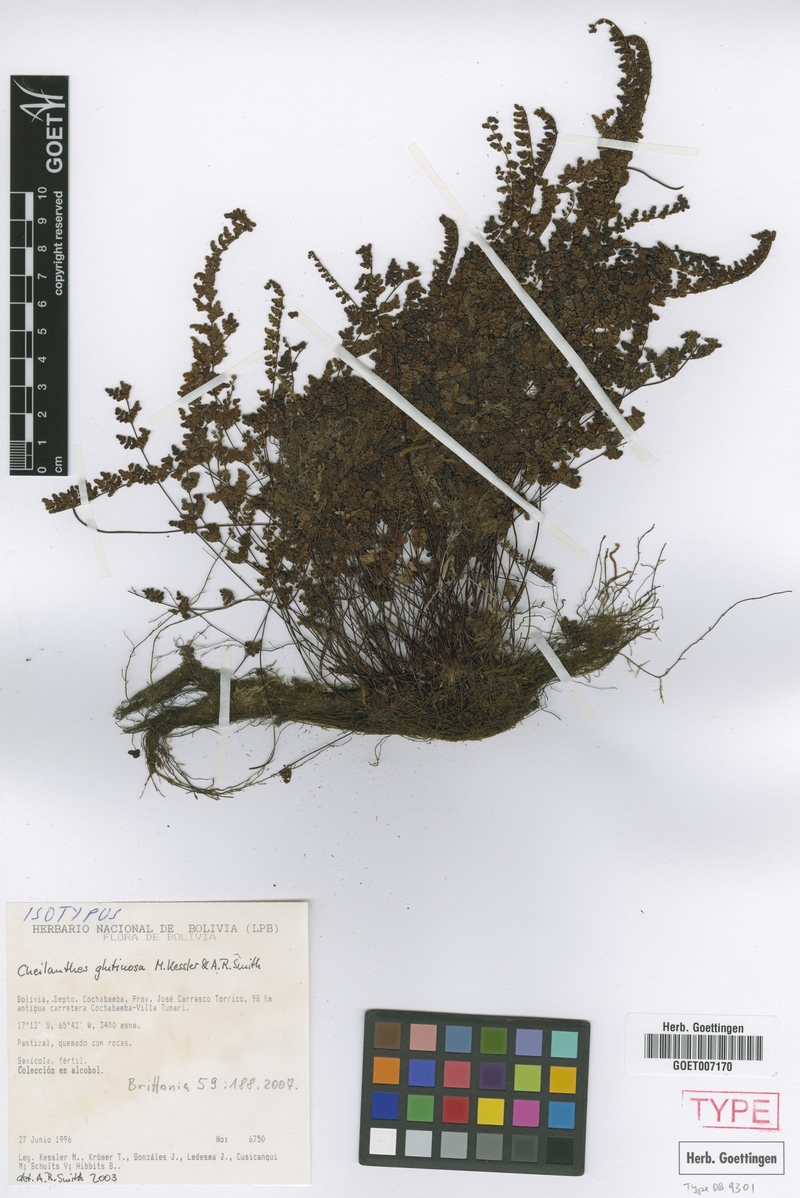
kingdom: Plantae
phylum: Tracheophyta
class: Polypodiopsida
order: Polypodiales
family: Pteridaceae
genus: Cheilanthes
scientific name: Cheilanthes glutinosa
